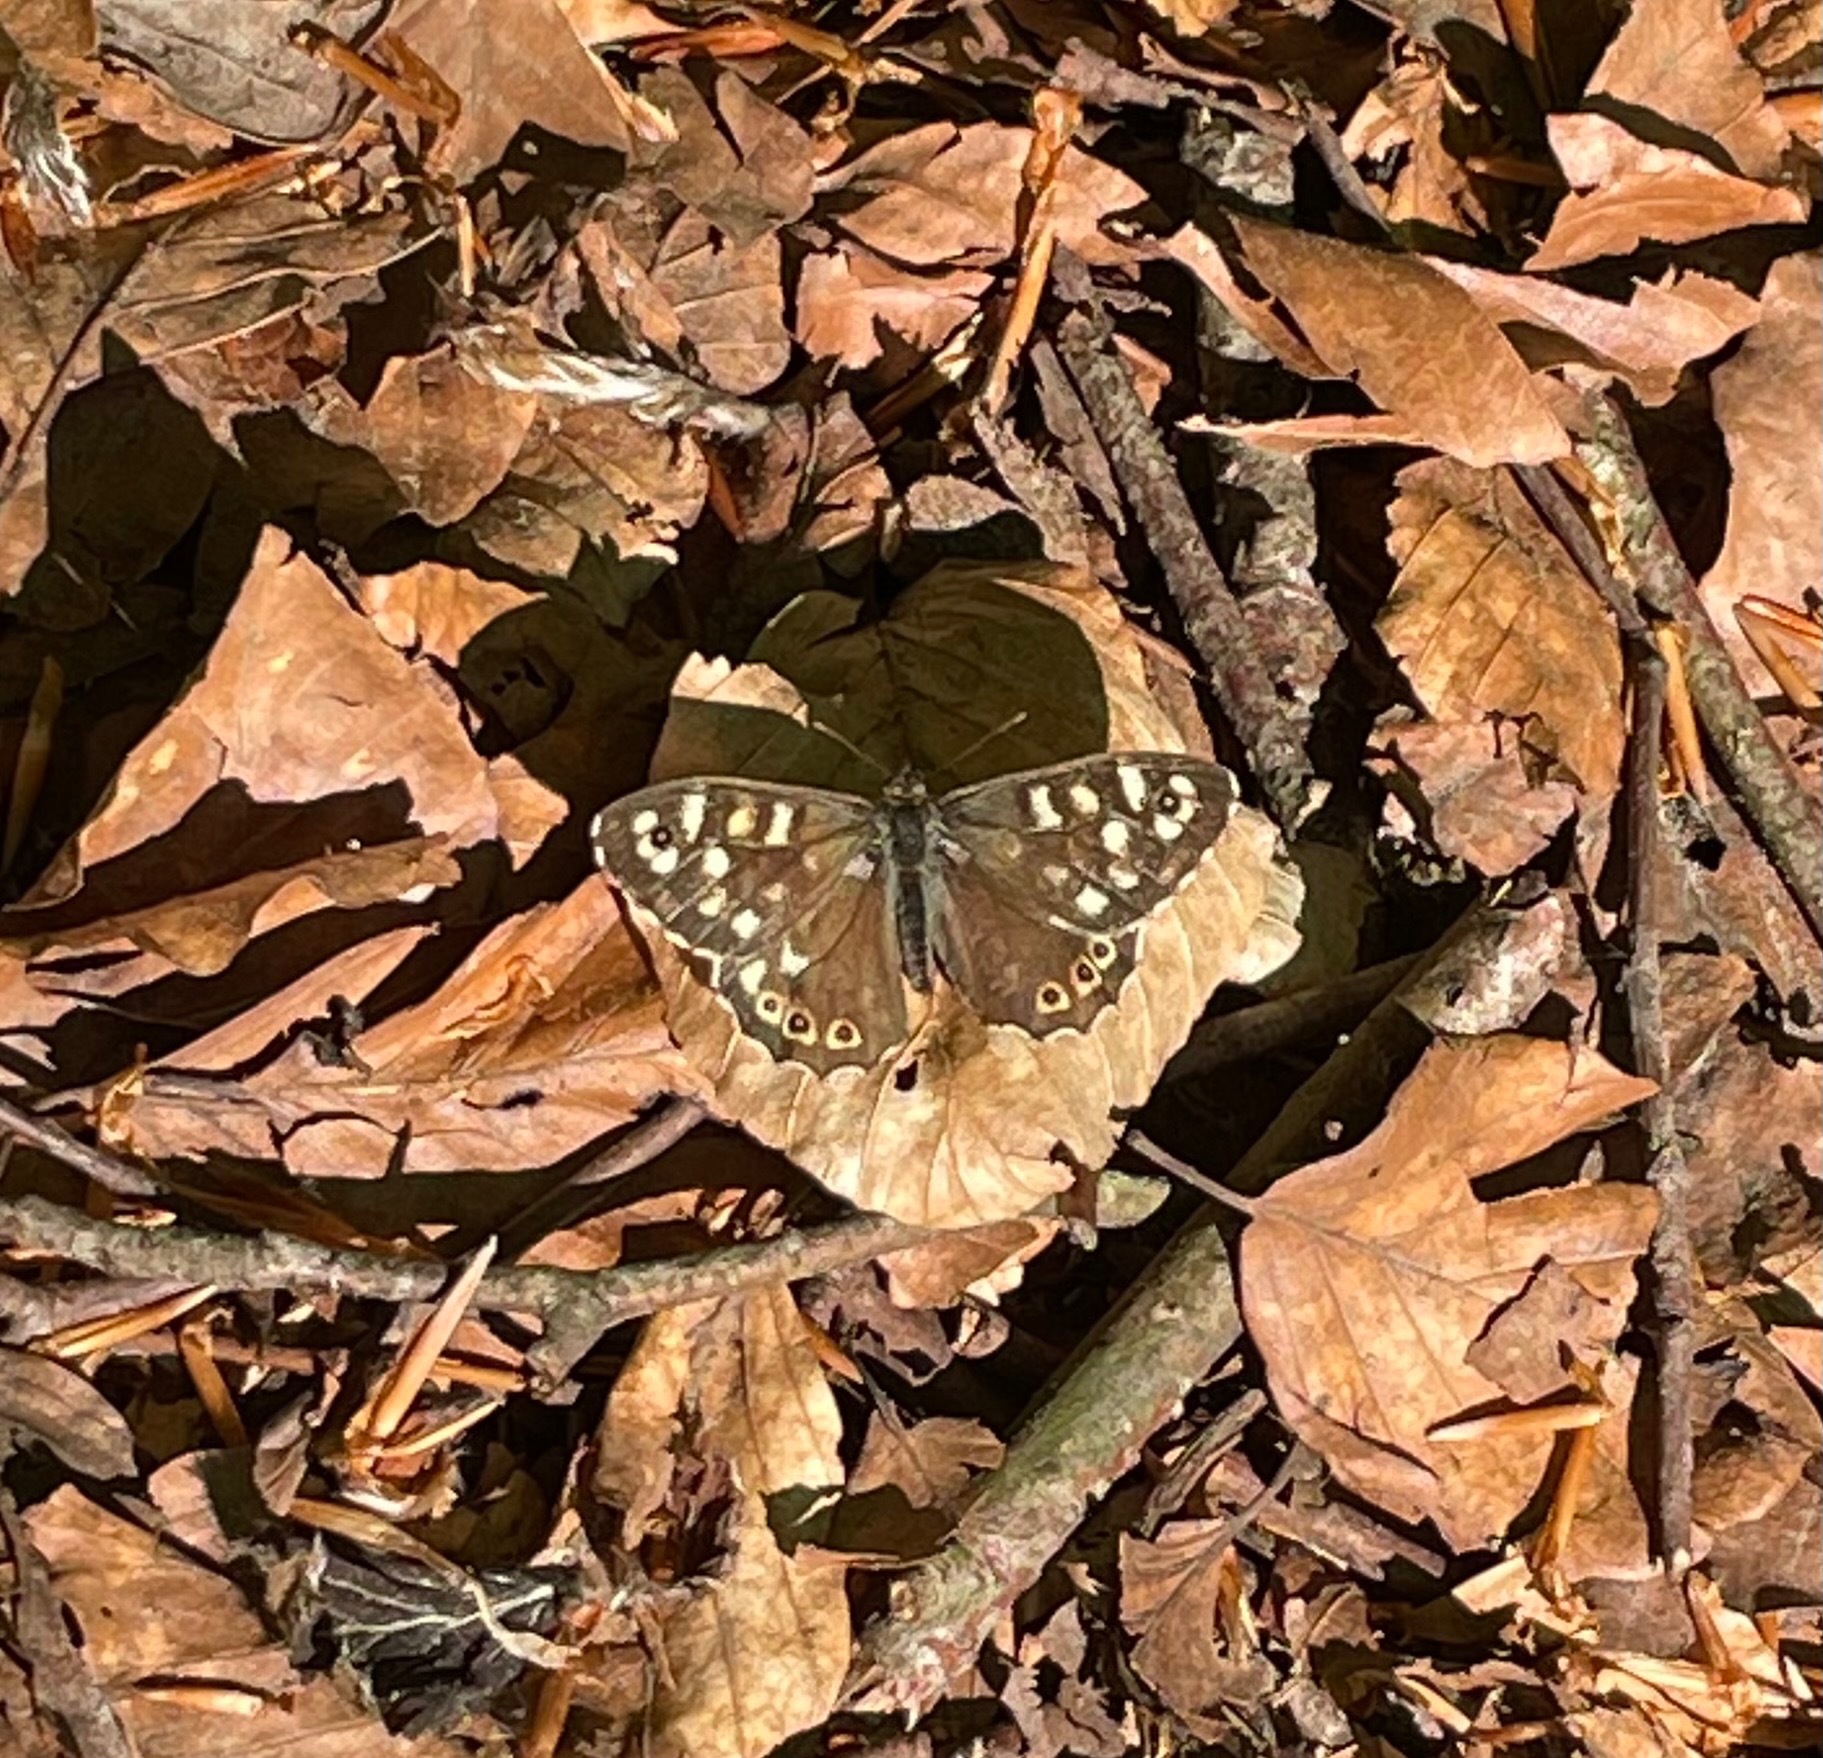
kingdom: Animalia
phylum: Arthropoda
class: Insecta
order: Lepidoptera
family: Nymphalidae
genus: Pararge
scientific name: Pararge aegeria
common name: Skovrandøje
